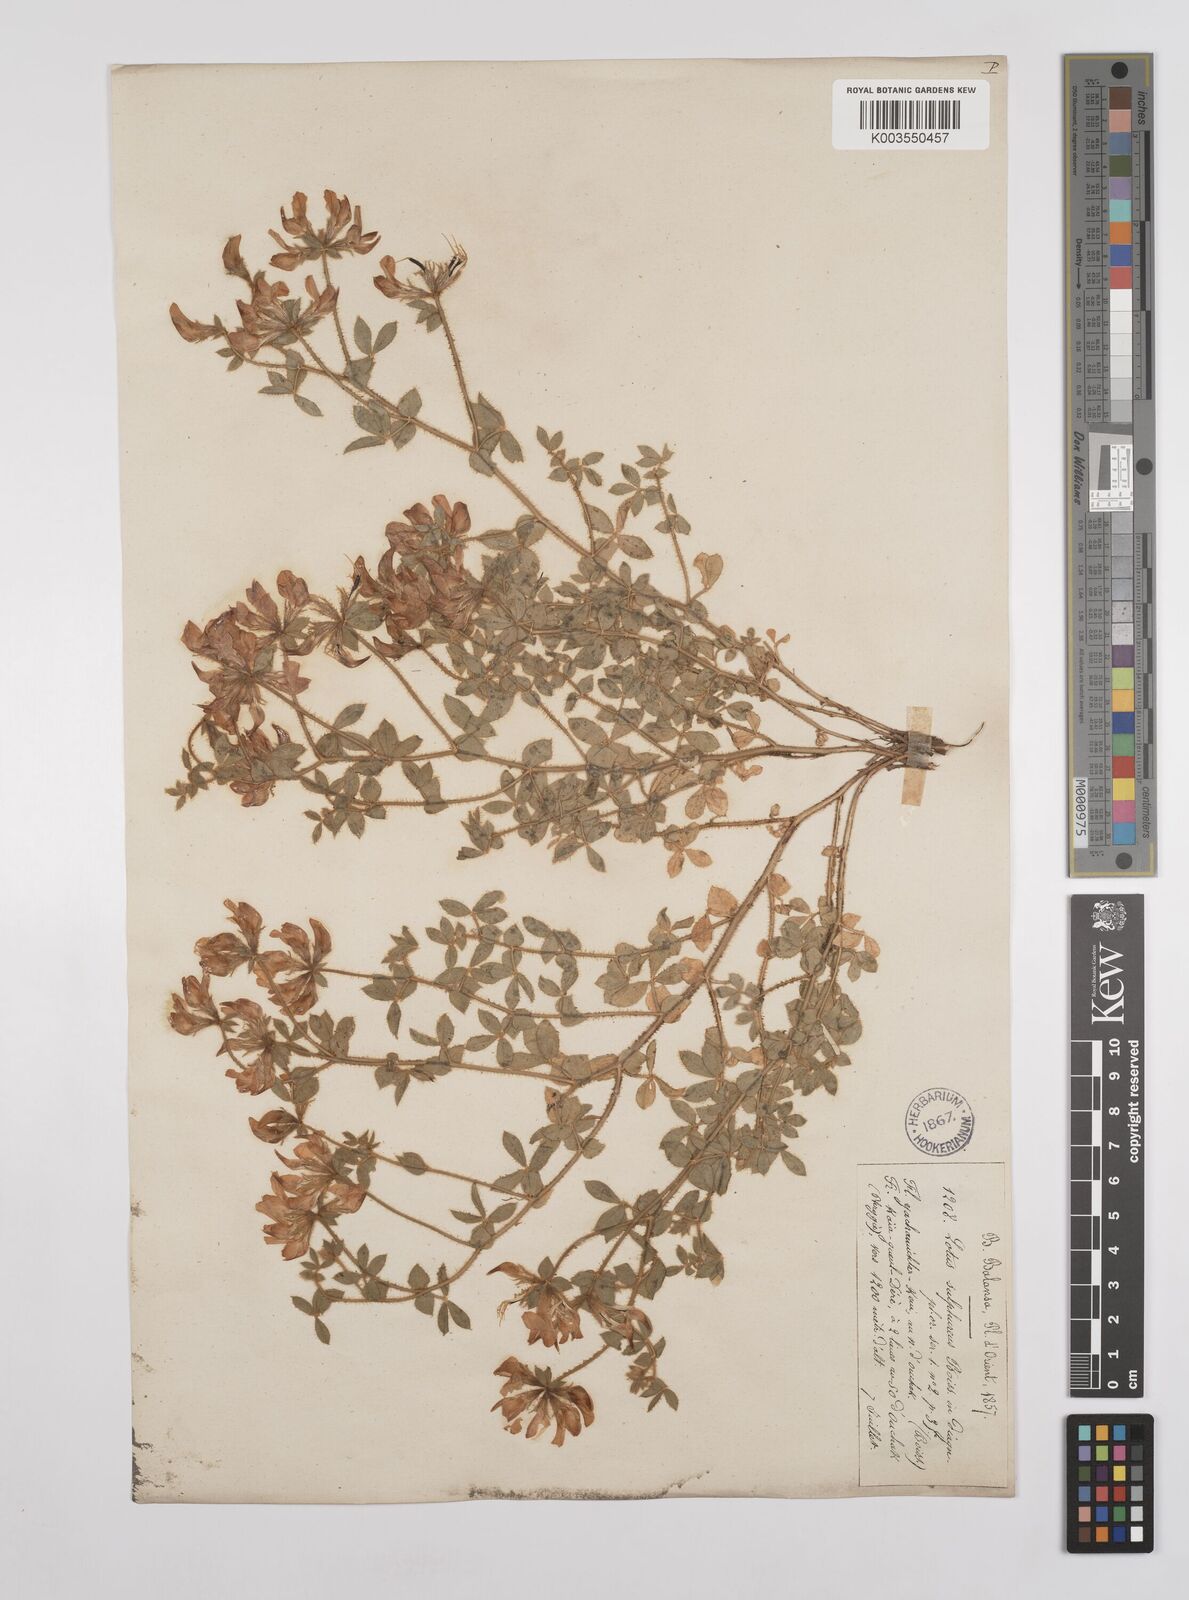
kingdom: Plantae
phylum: Tracheophyta
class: Magnoliopsida
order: Fabales
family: Fabaceae
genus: Lotus
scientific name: Lotus aegaeus
